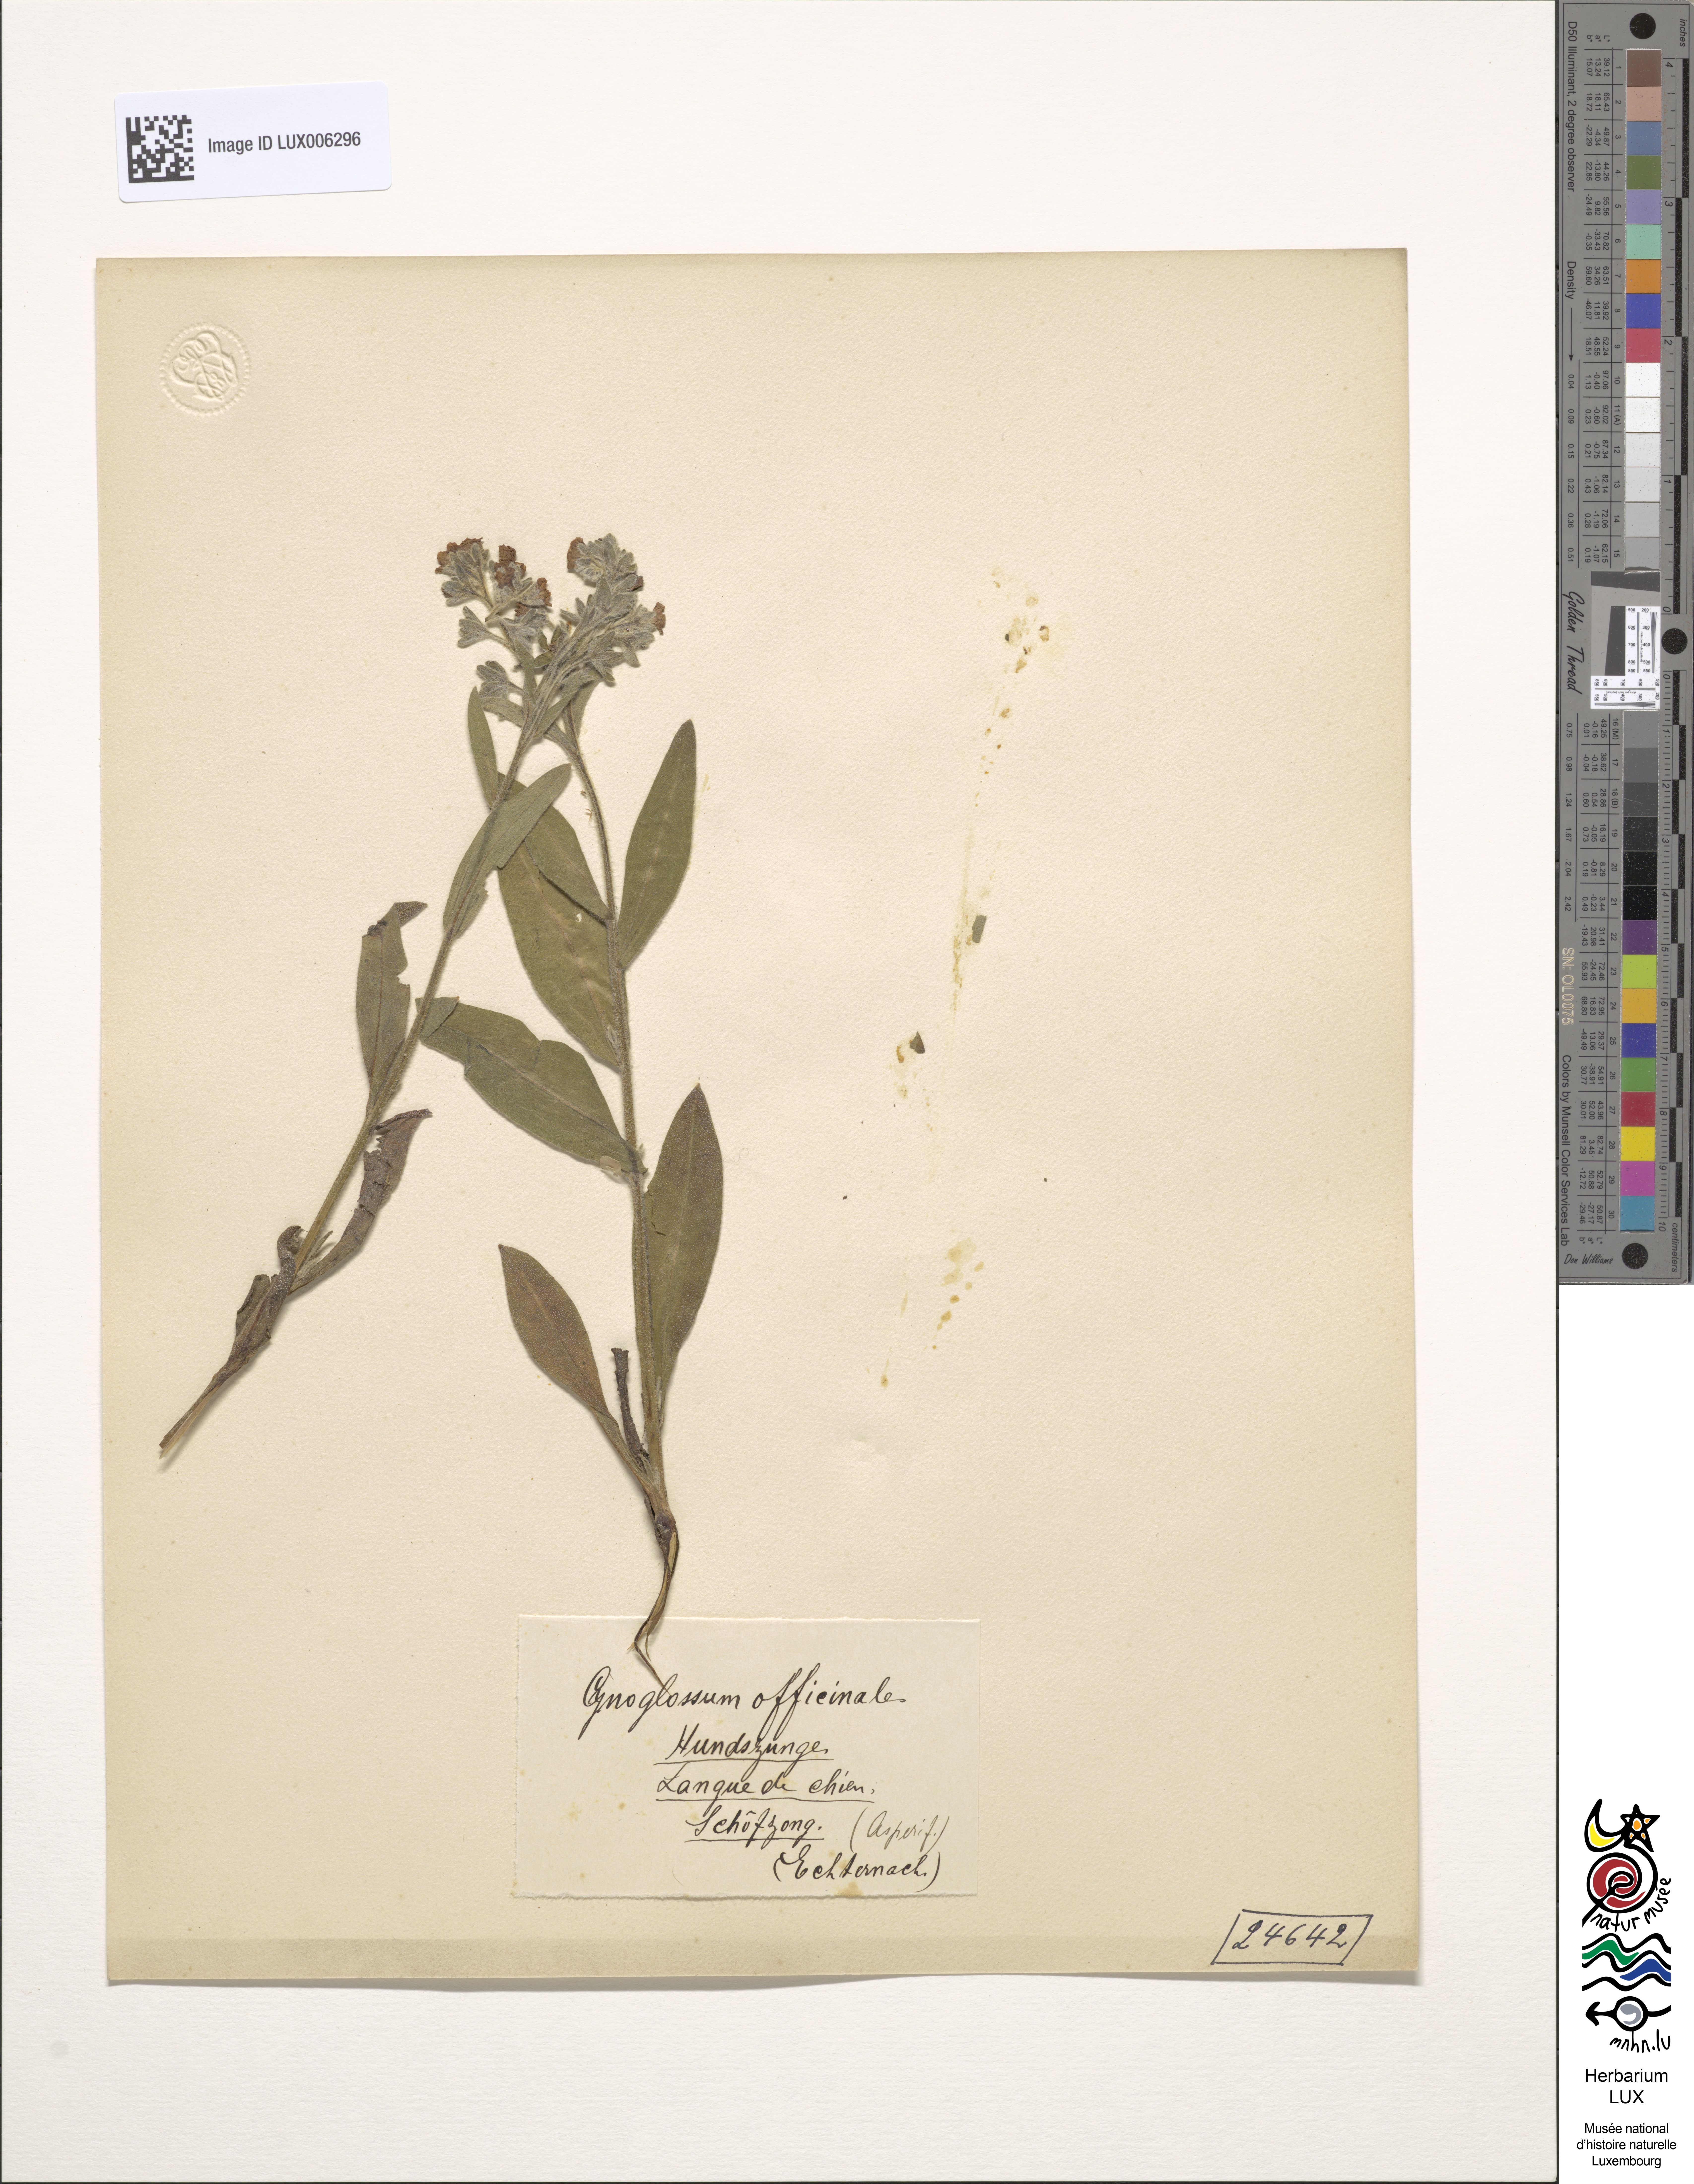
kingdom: Plantae
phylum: Tracheophyta
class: Magnoliopsida
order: Boraginales
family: Boraginaceae
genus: Cynoglossum
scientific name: Cynoglossum officinale
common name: Hound's-tongue
